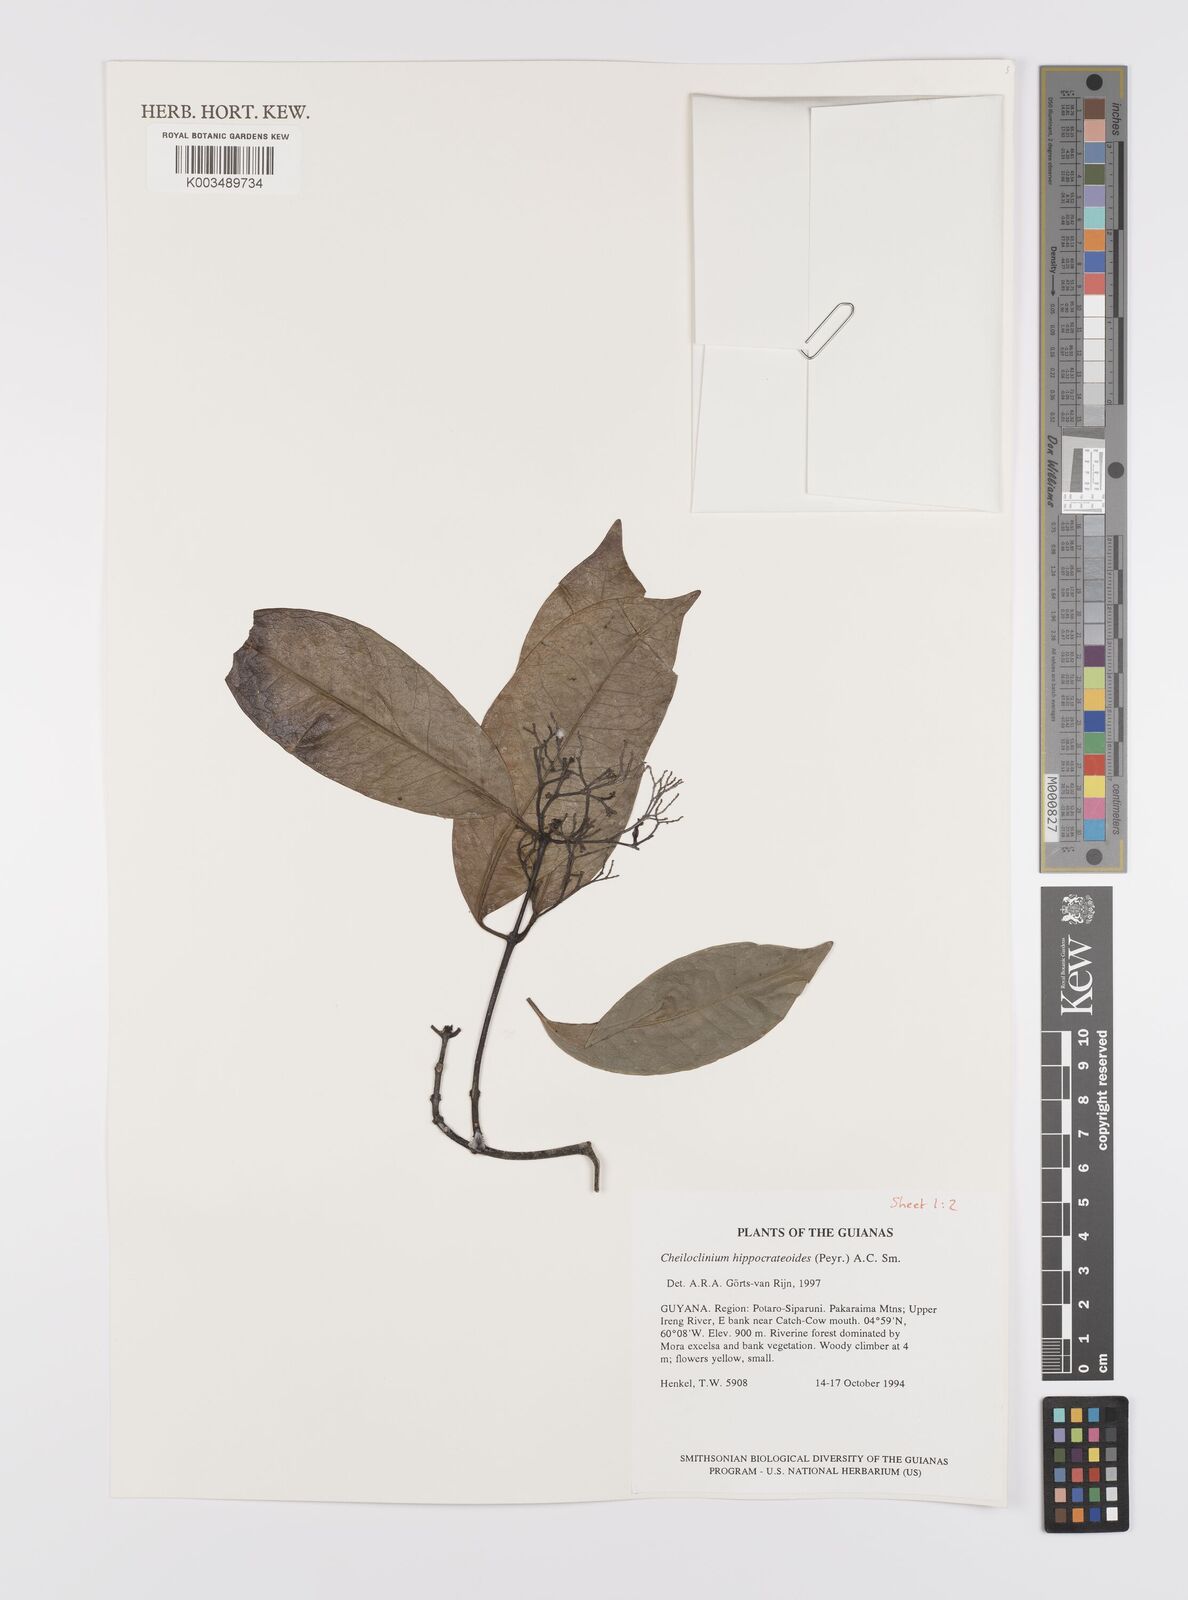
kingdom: Plantae
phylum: Tracheophyta
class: Magnoliopsida
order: Celastrales
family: Celastraceae
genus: Cheiloclinium
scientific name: Cheiloclinium hippocrateoides
